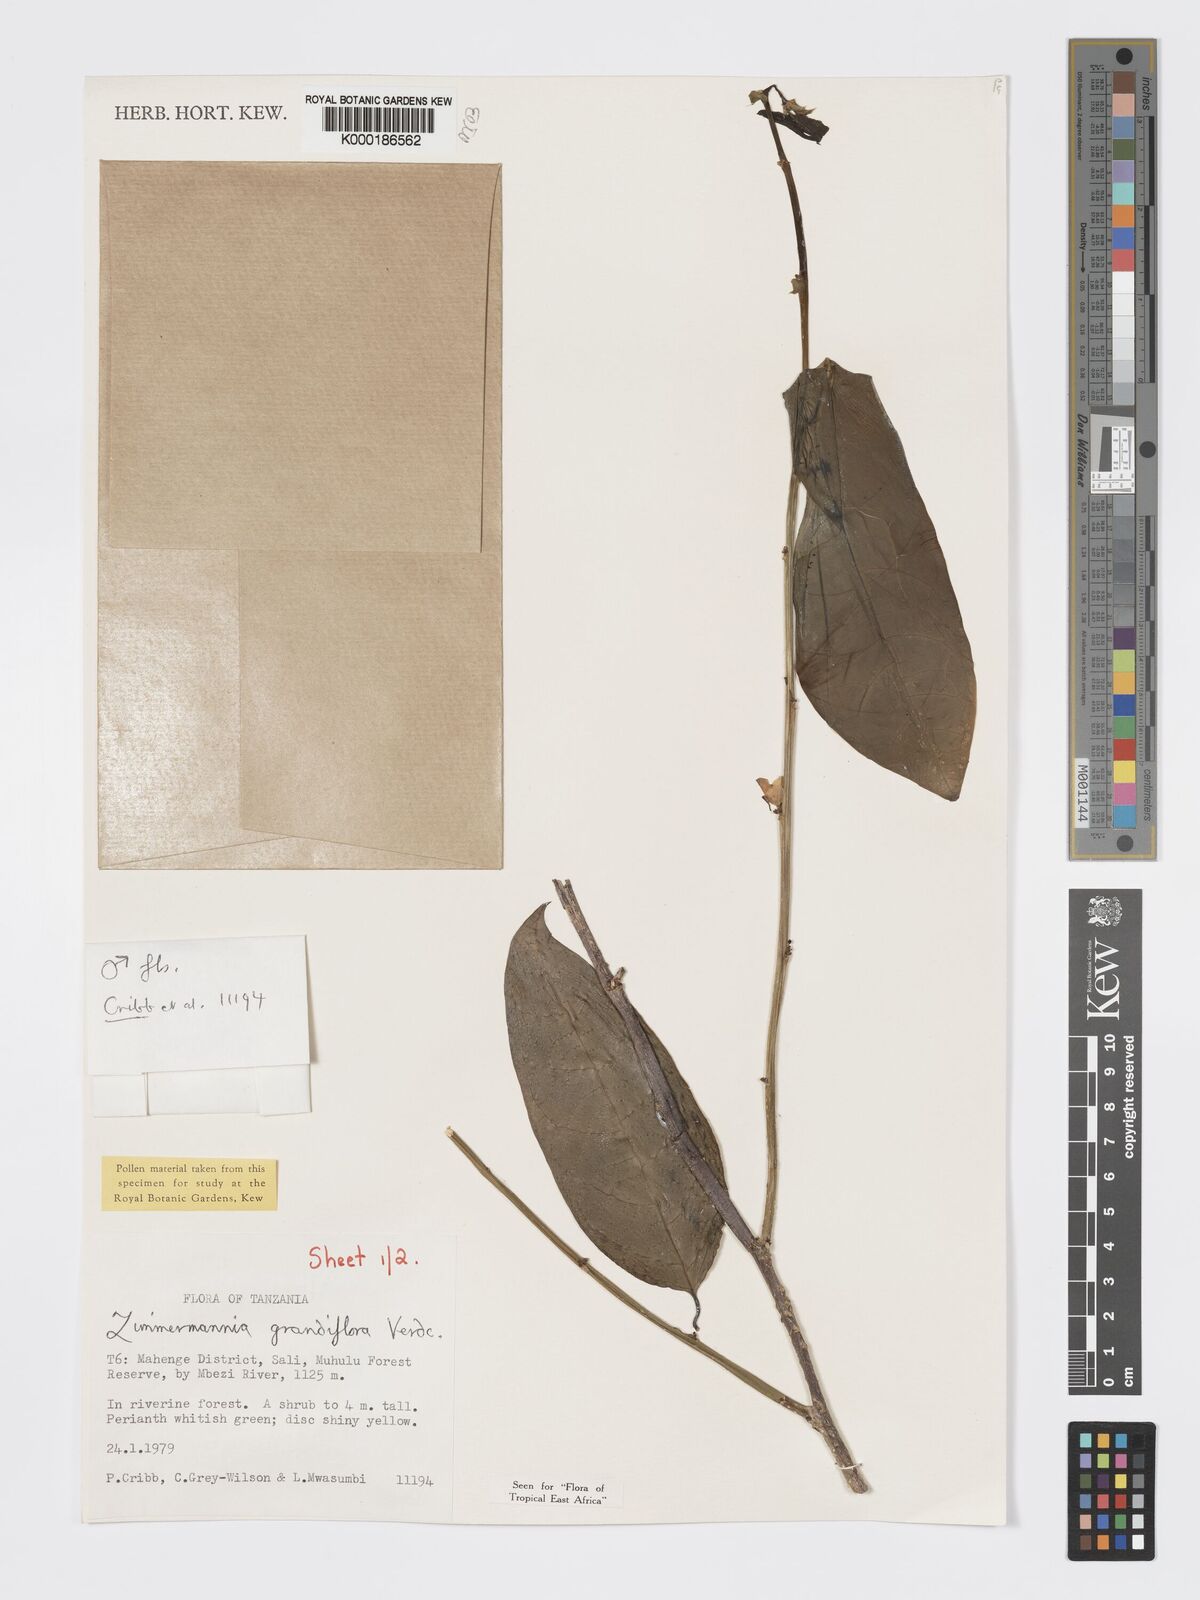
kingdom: Plantae
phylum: Tracheophyta
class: Magnoliopsida
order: Malpighiales
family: Phyllanthaceae
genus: Meineckia
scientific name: Meineckia grandiflora
